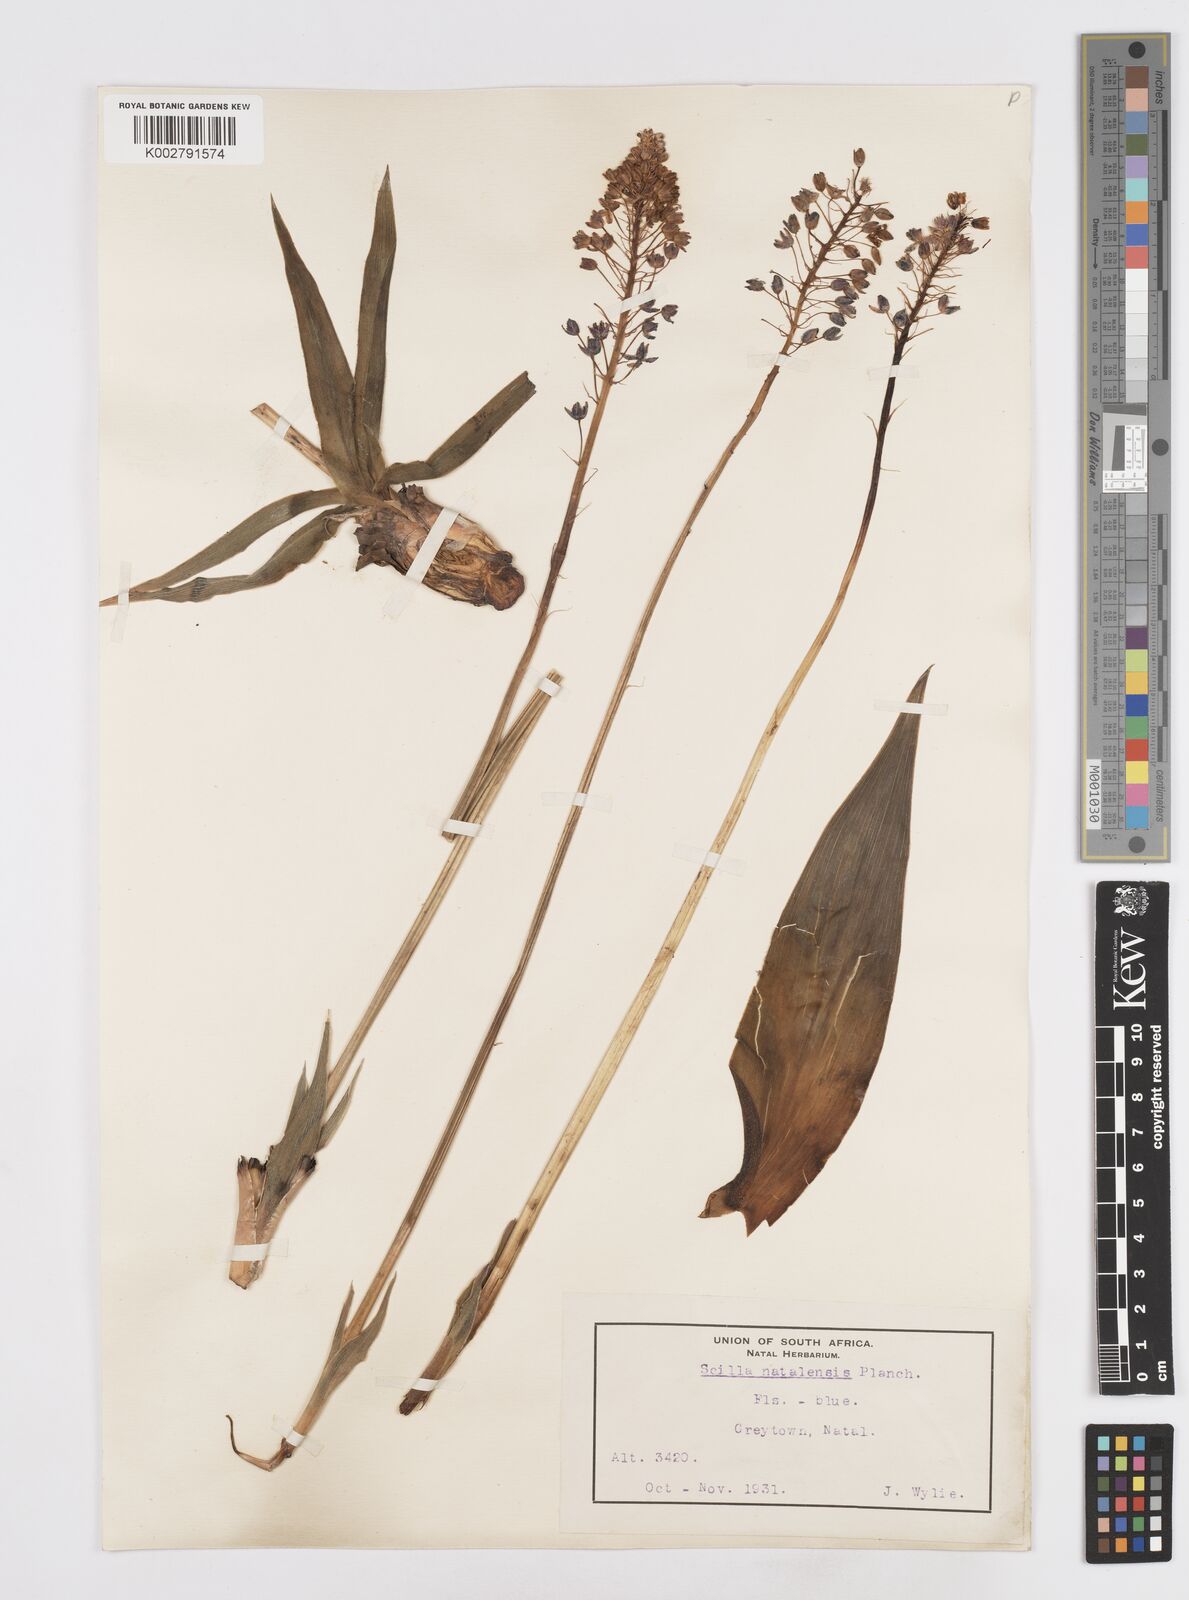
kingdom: Plantae
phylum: Tracheophyta
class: Liliopsida
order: Asparagales
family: Asparagaceae
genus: Merwilla
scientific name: Merwilla plumbea
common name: Blue-squill
